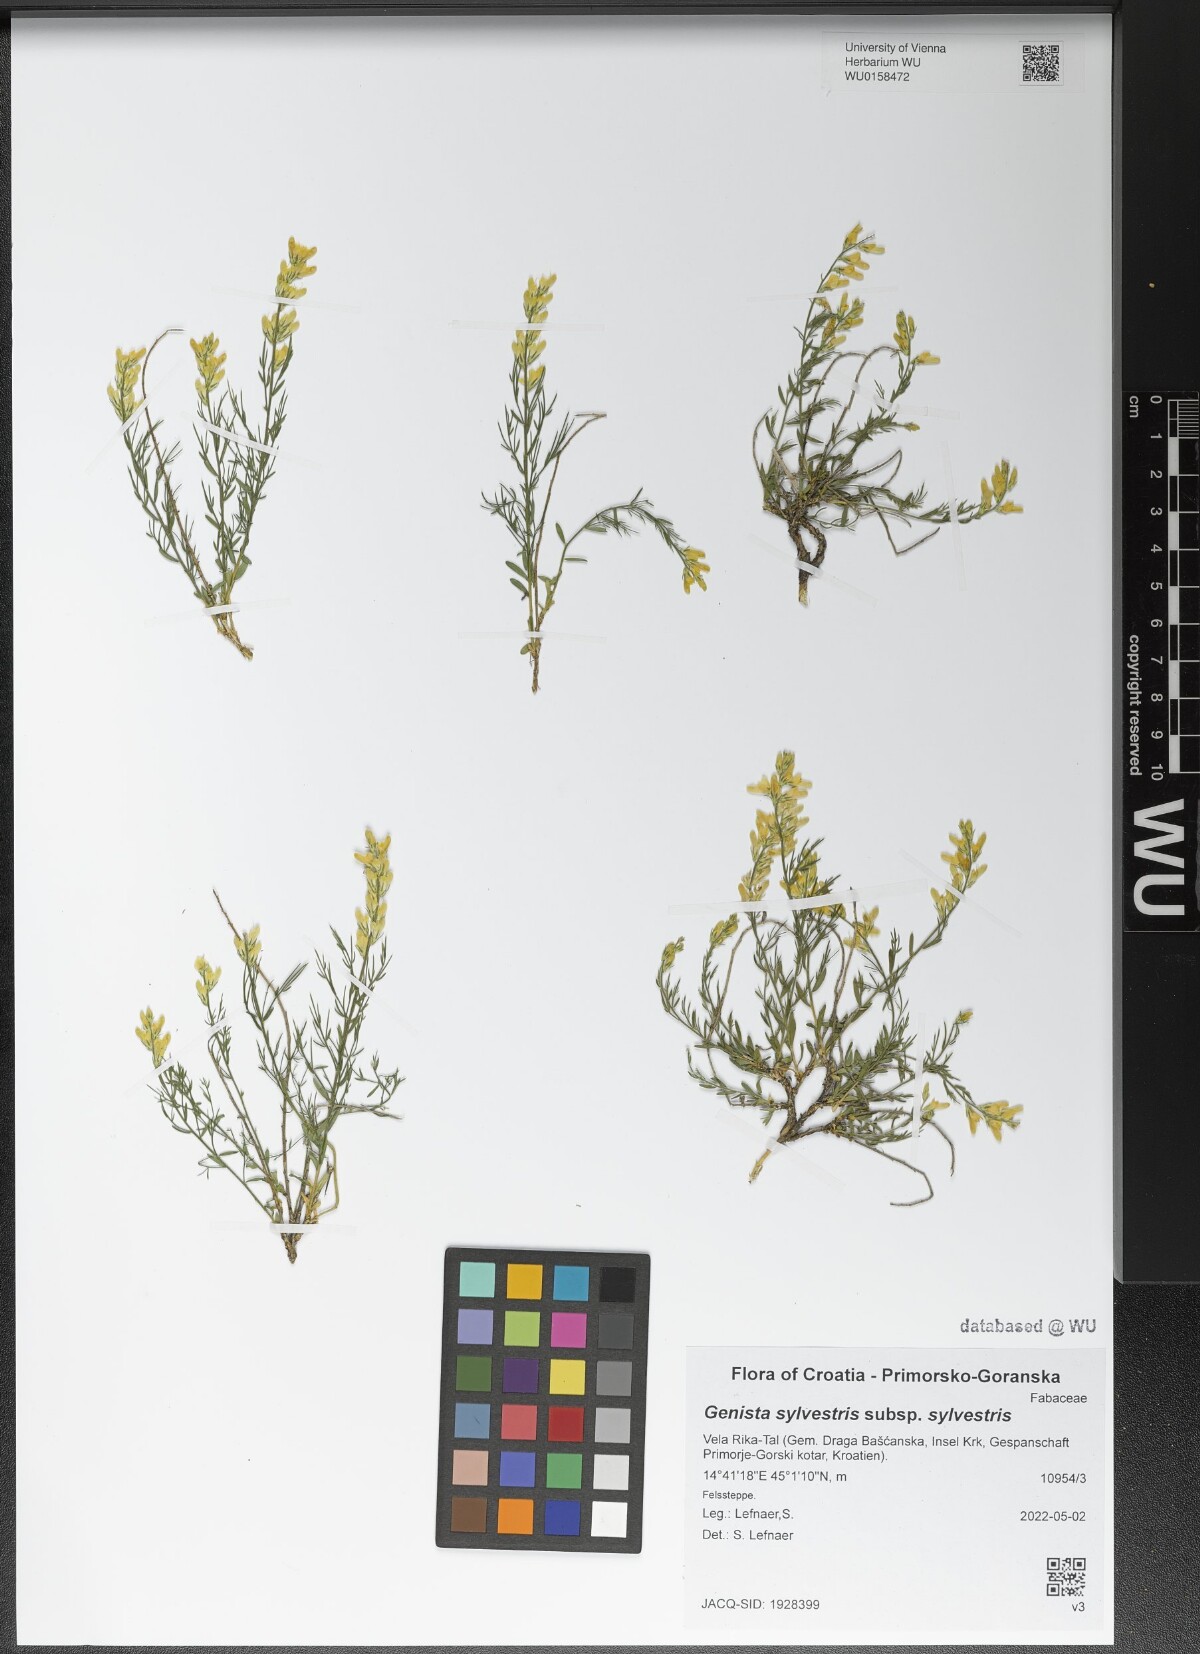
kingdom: Plantae
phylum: Tracheophyta
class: Magnoliopsida
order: Fabales
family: Fabaceae
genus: Genista
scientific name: Genista sylvestris
